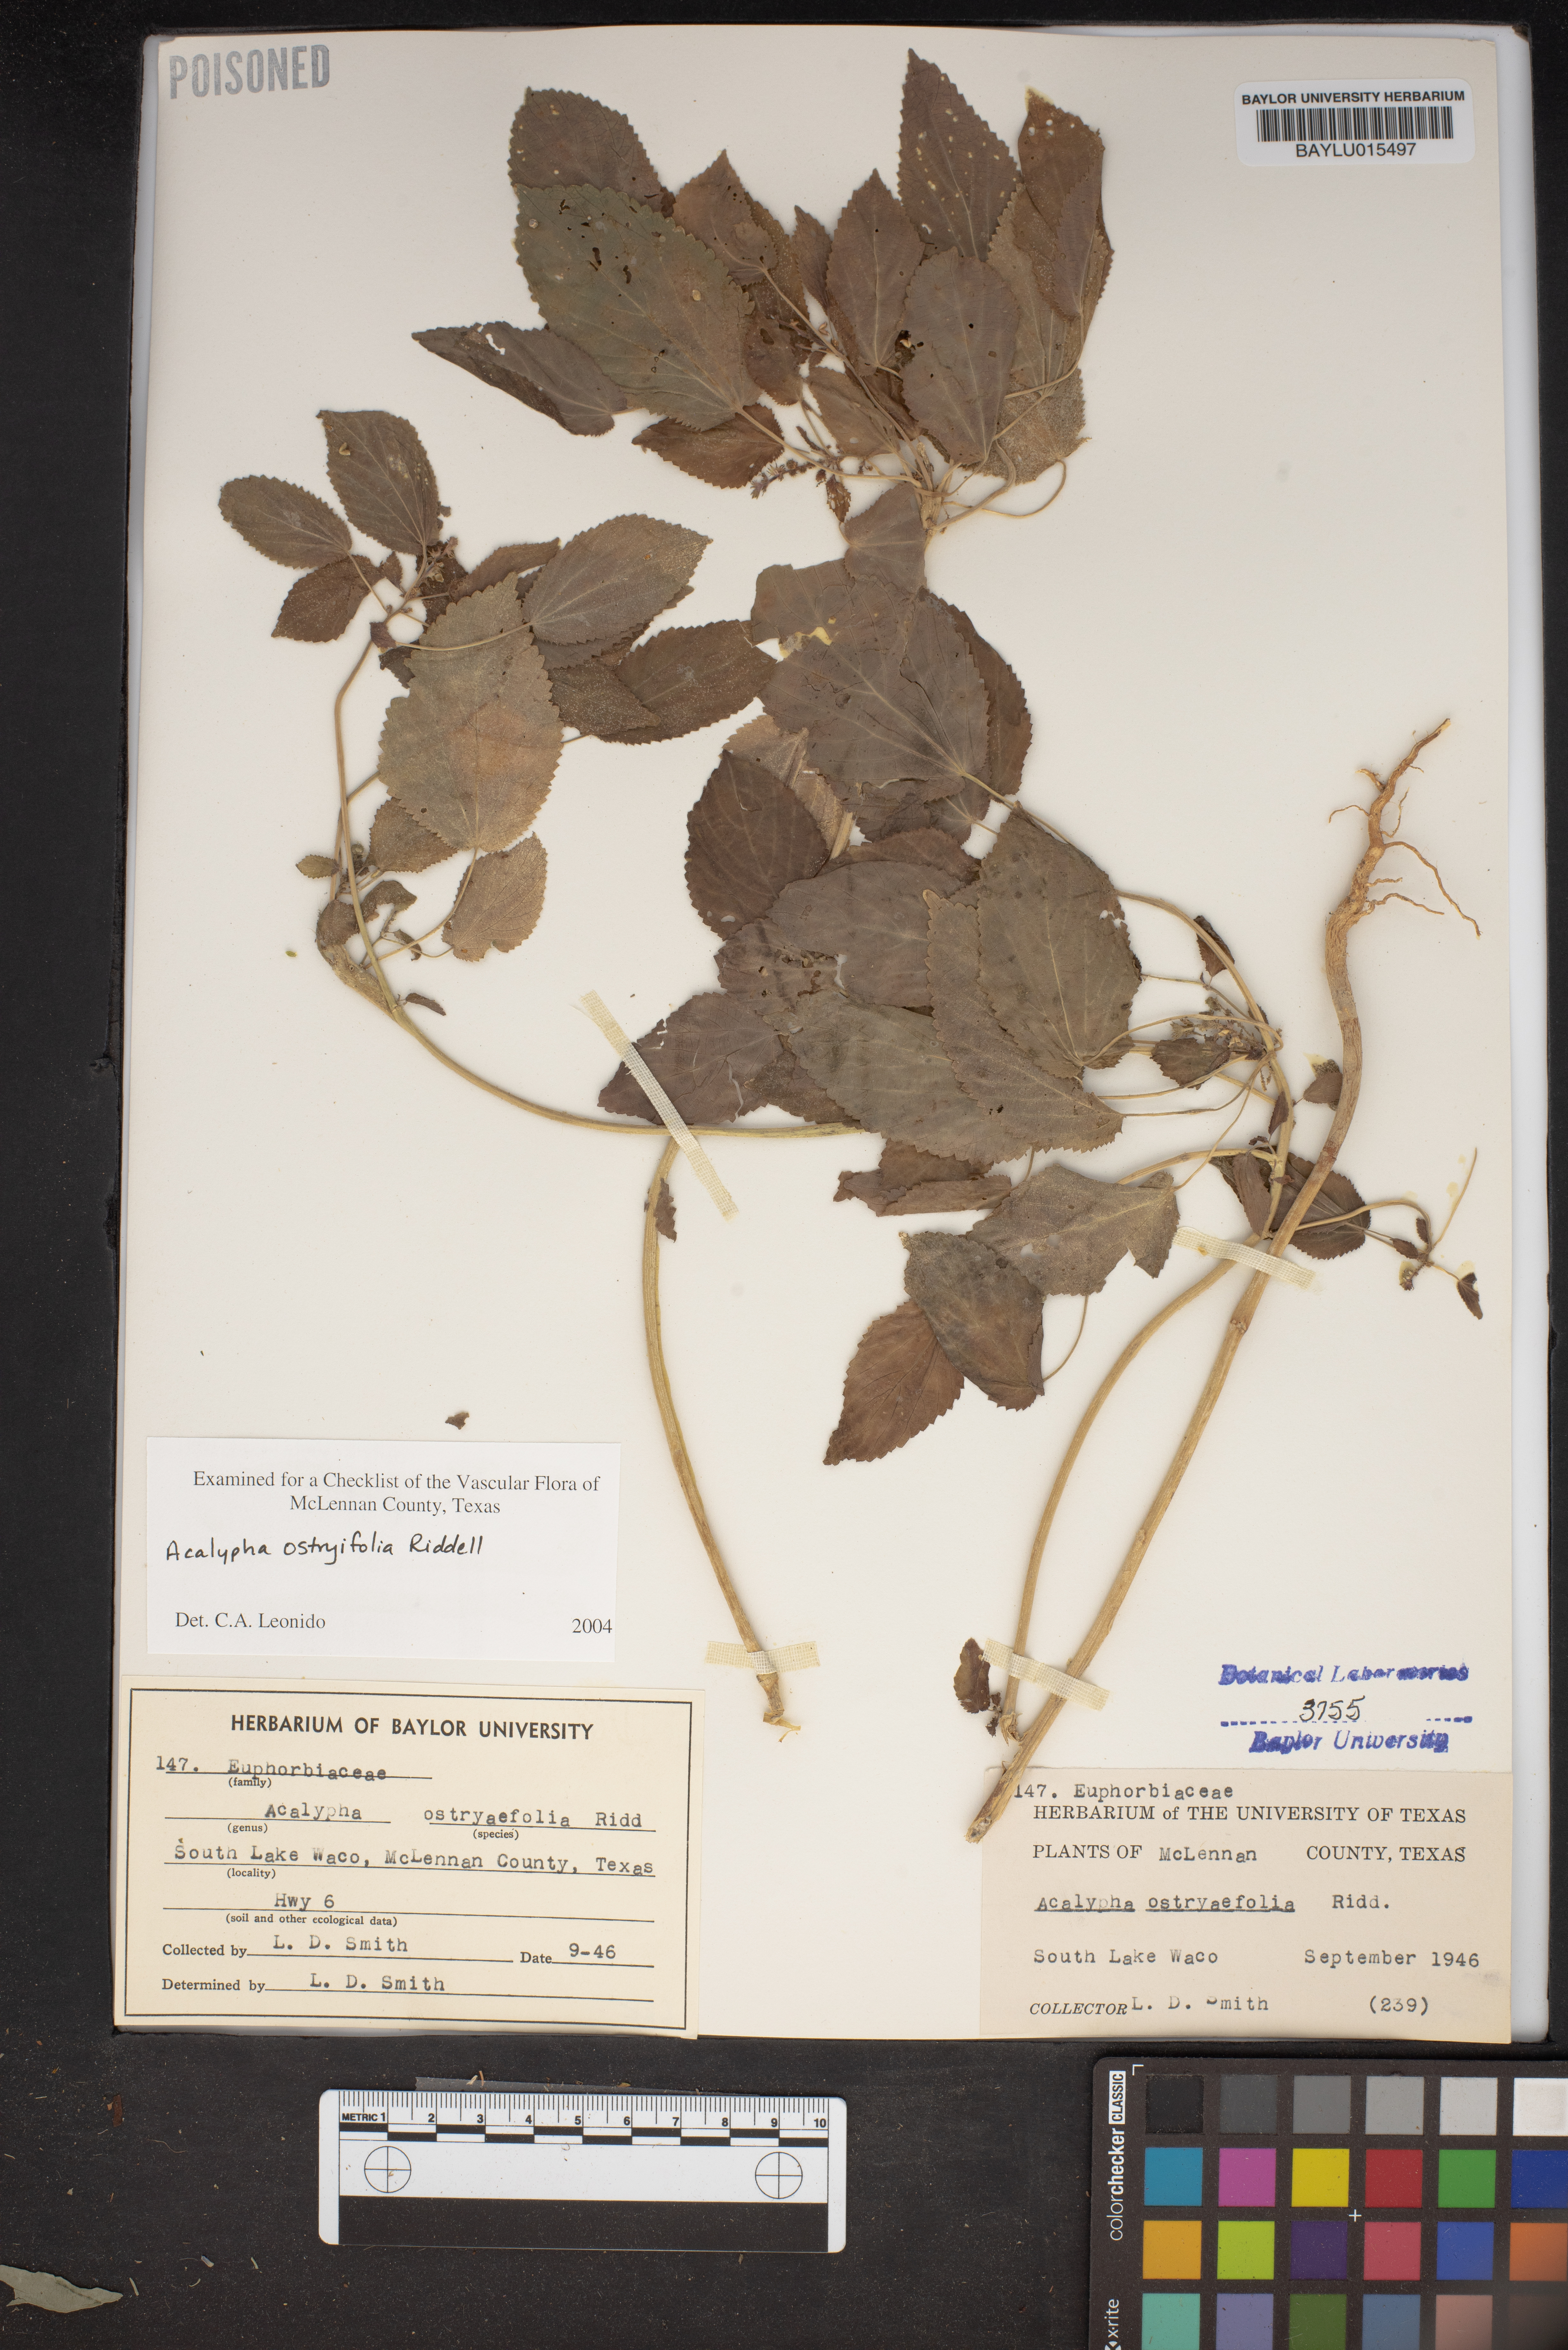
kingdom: Plantae
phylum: Tracheophyta
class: Magnoliopsida
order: Malpighiales
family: Euphorbiaceae
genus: Acalypha
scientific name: Acalypha ostryifolia
